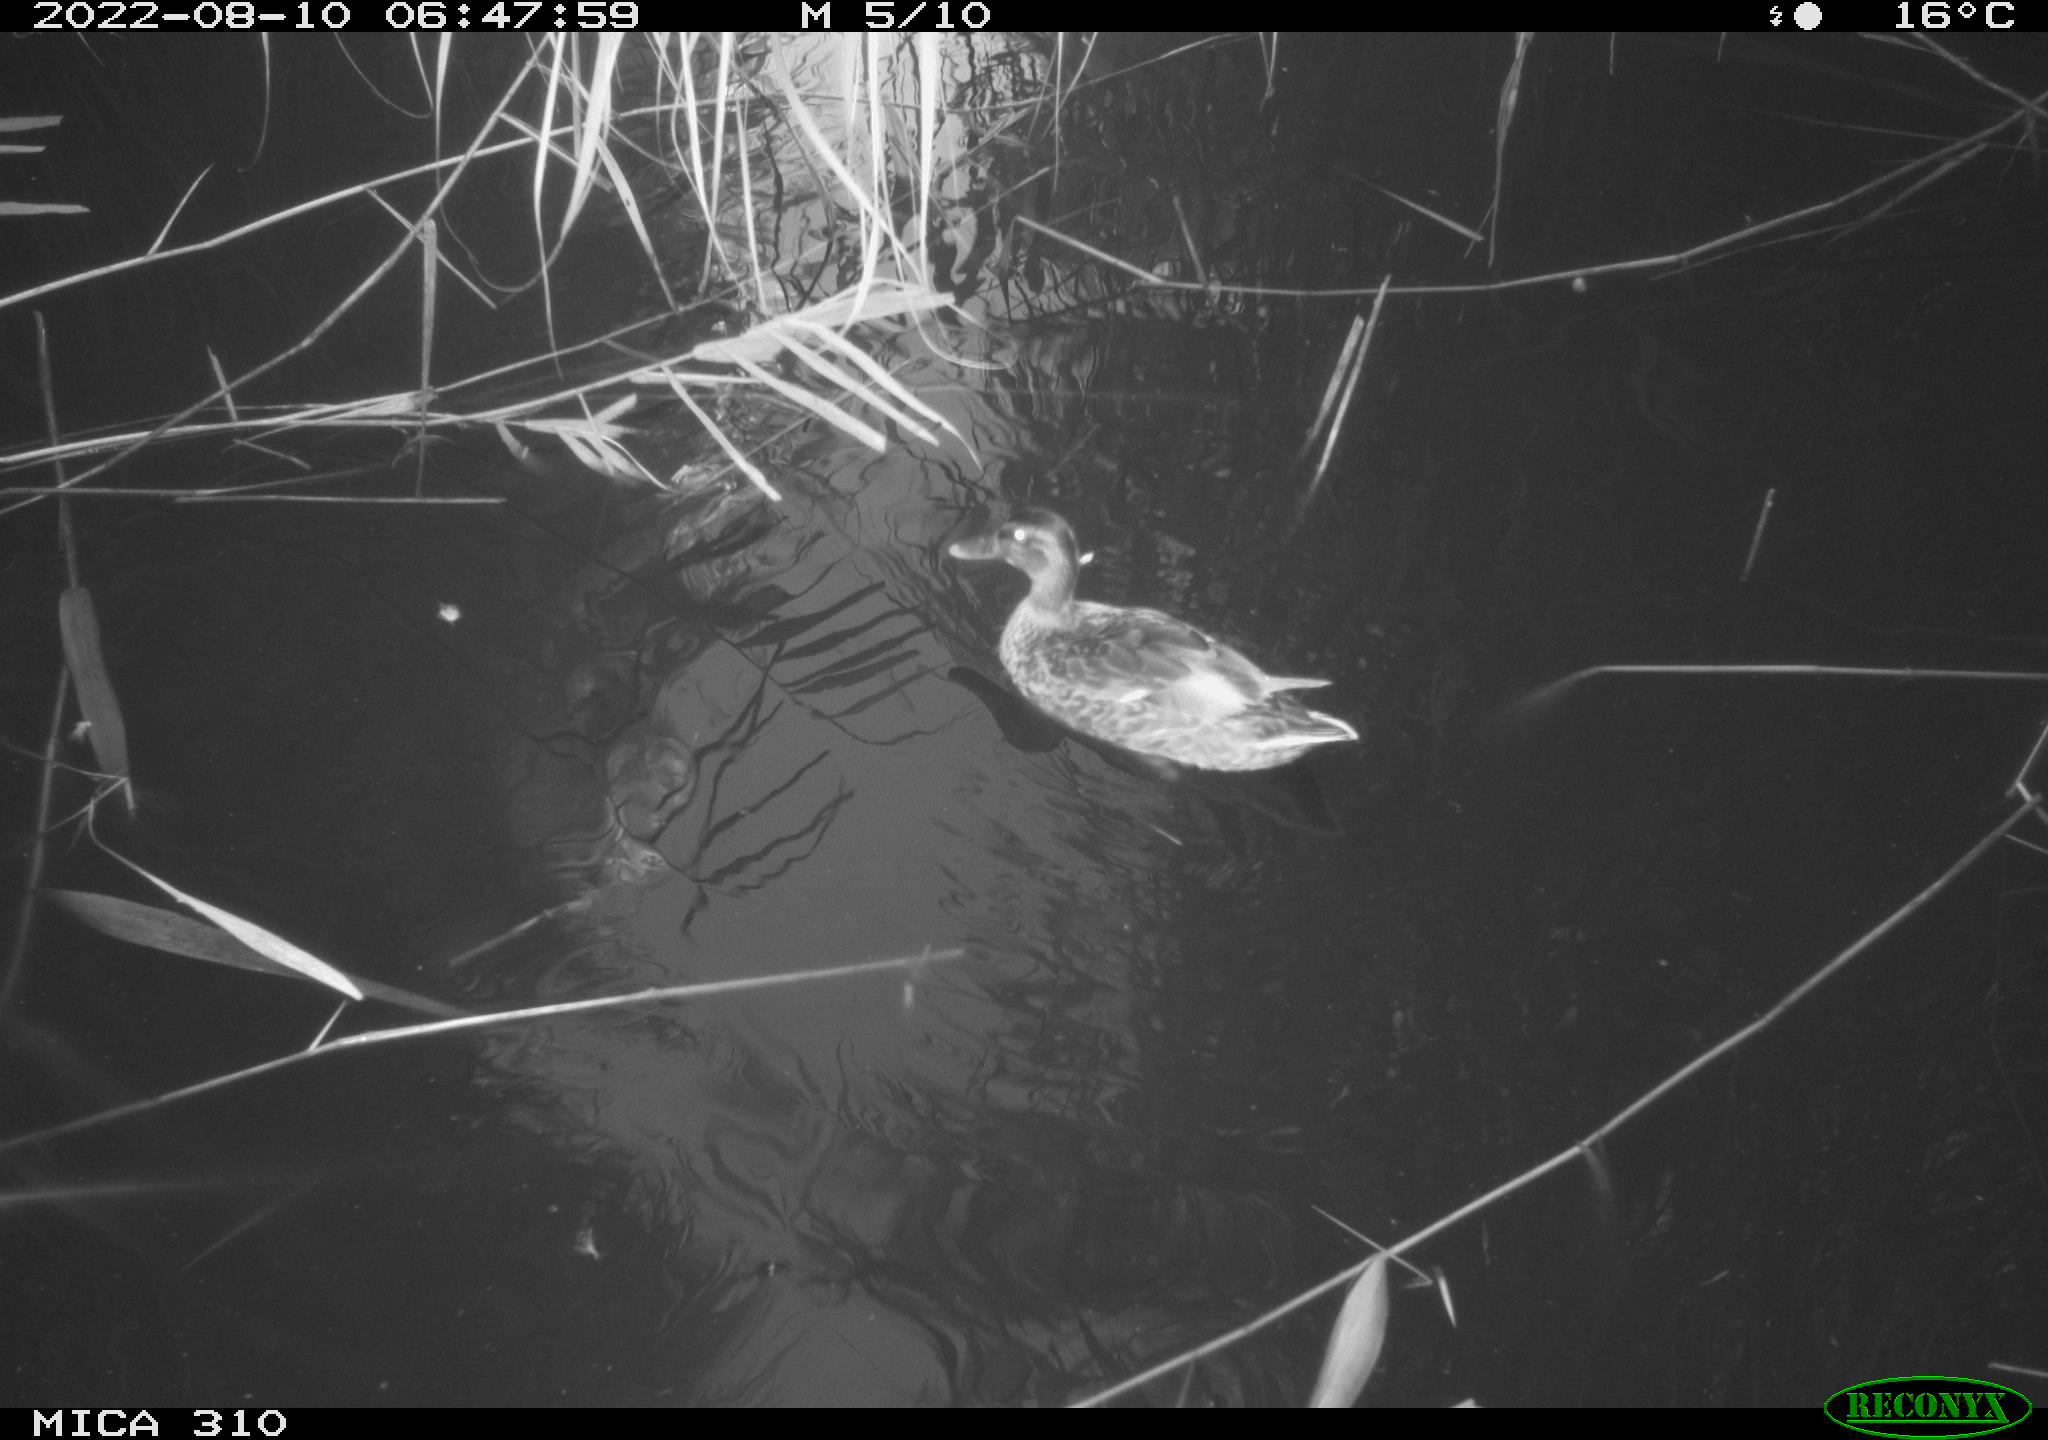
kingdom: Animalia
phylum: Chordata
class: Aves
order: Anseriformes
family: Anatidae
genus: Anas
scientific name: Anas platyrhynchos
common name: Mallard
